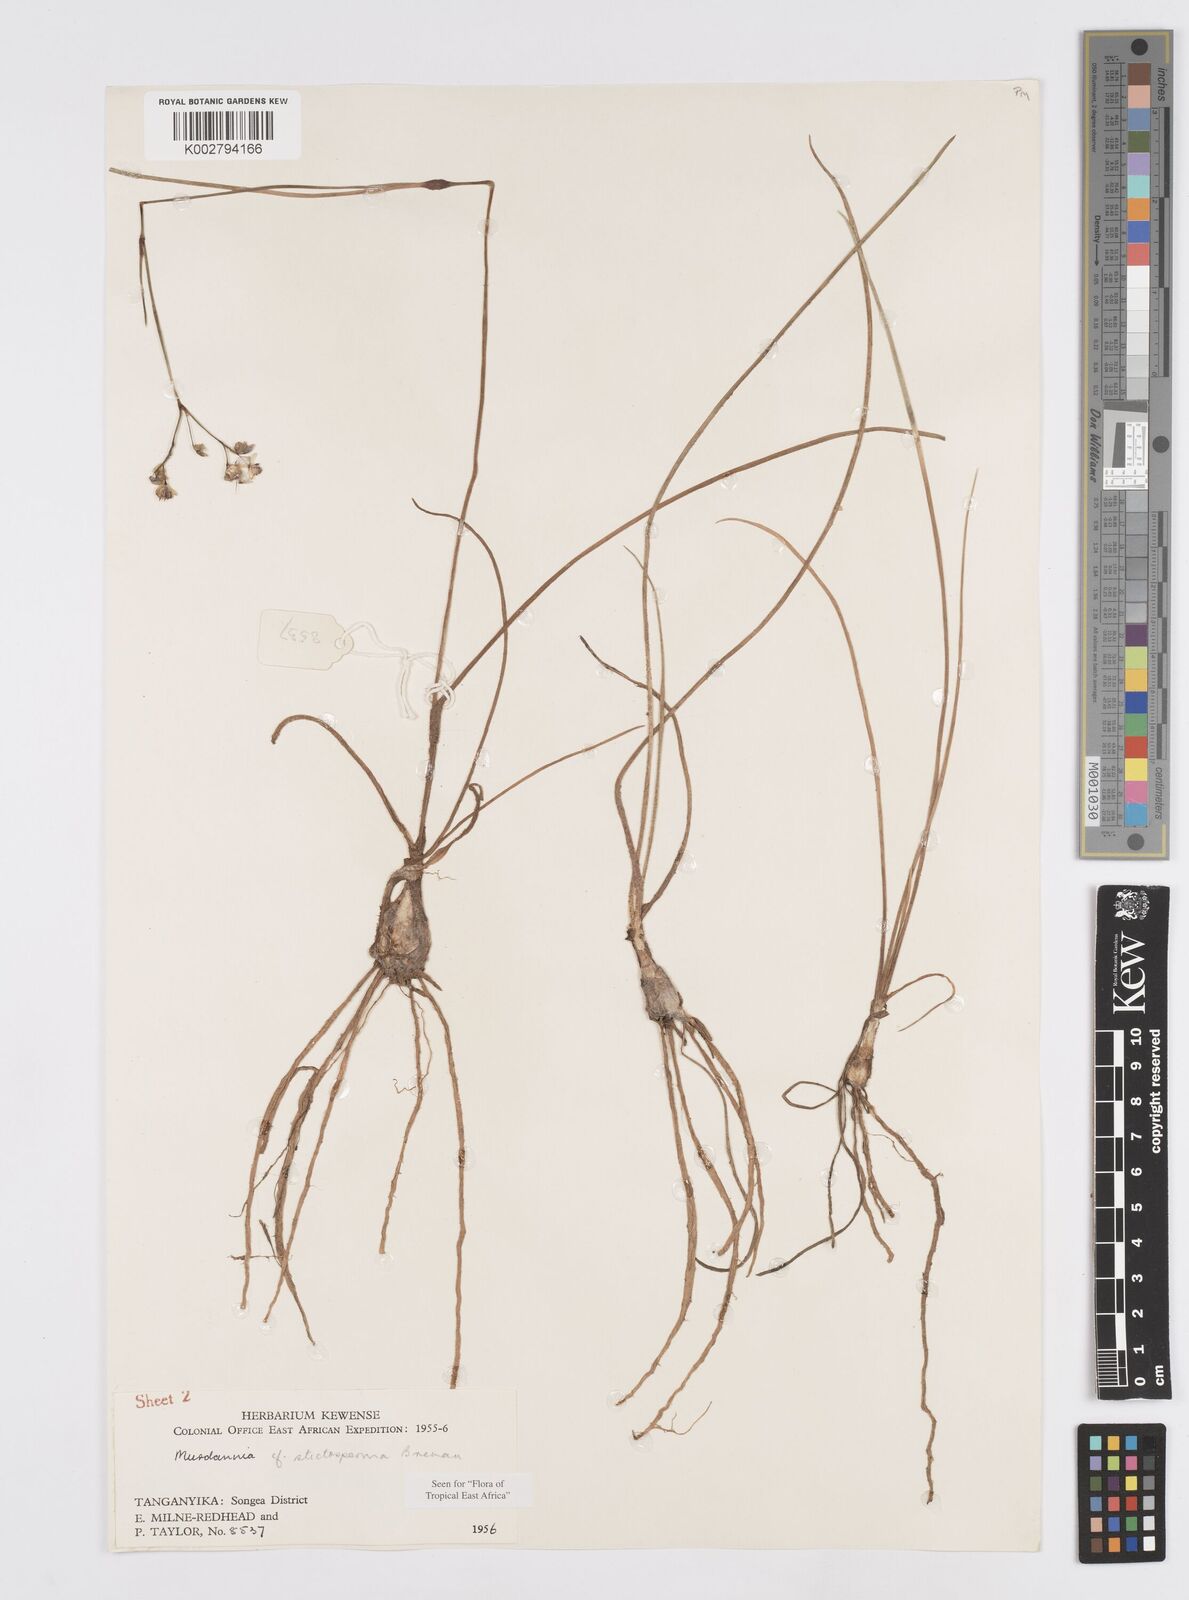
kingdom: Plantae
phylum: Tracheophyta
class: Liliopsida
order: Commelinales
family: Commelinaceae
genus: Murdannia
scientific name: Murdannia simplex
